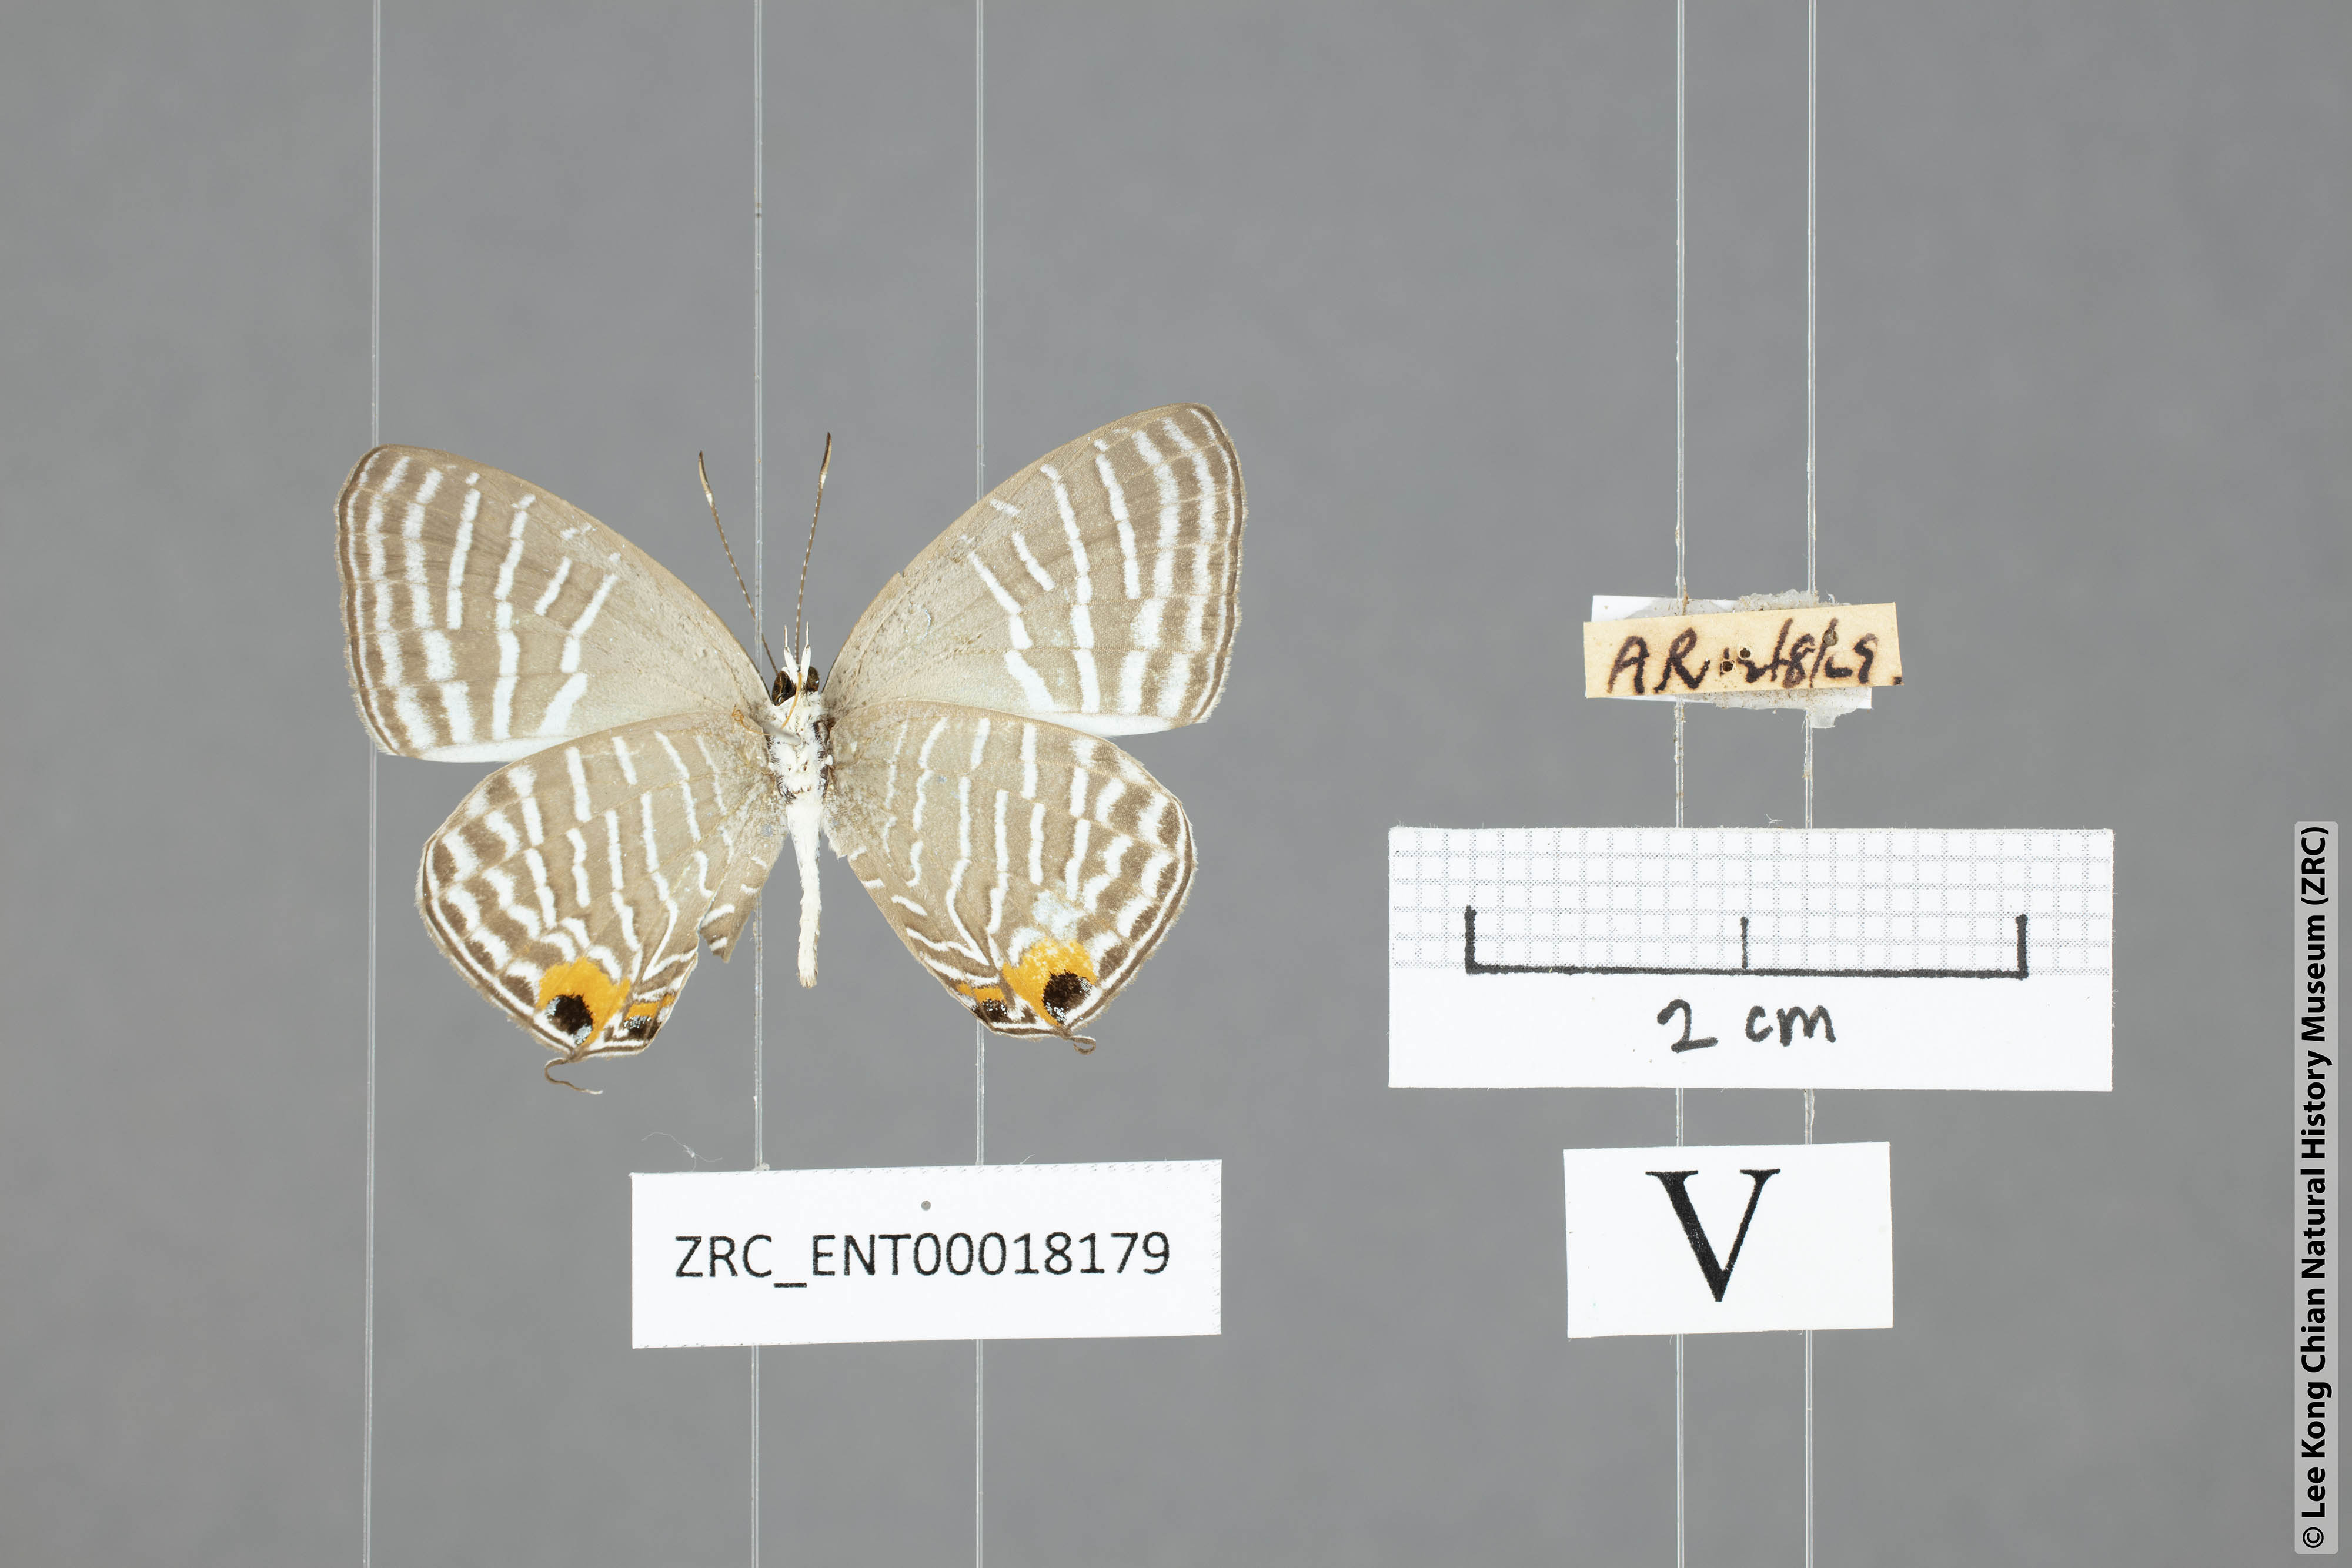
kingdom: Animalia
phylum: Arthropoda
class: Insecta
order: Lepidoptera
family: Lycaenidae
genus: Jamides
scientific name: Jamides pura
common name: White cerulean
